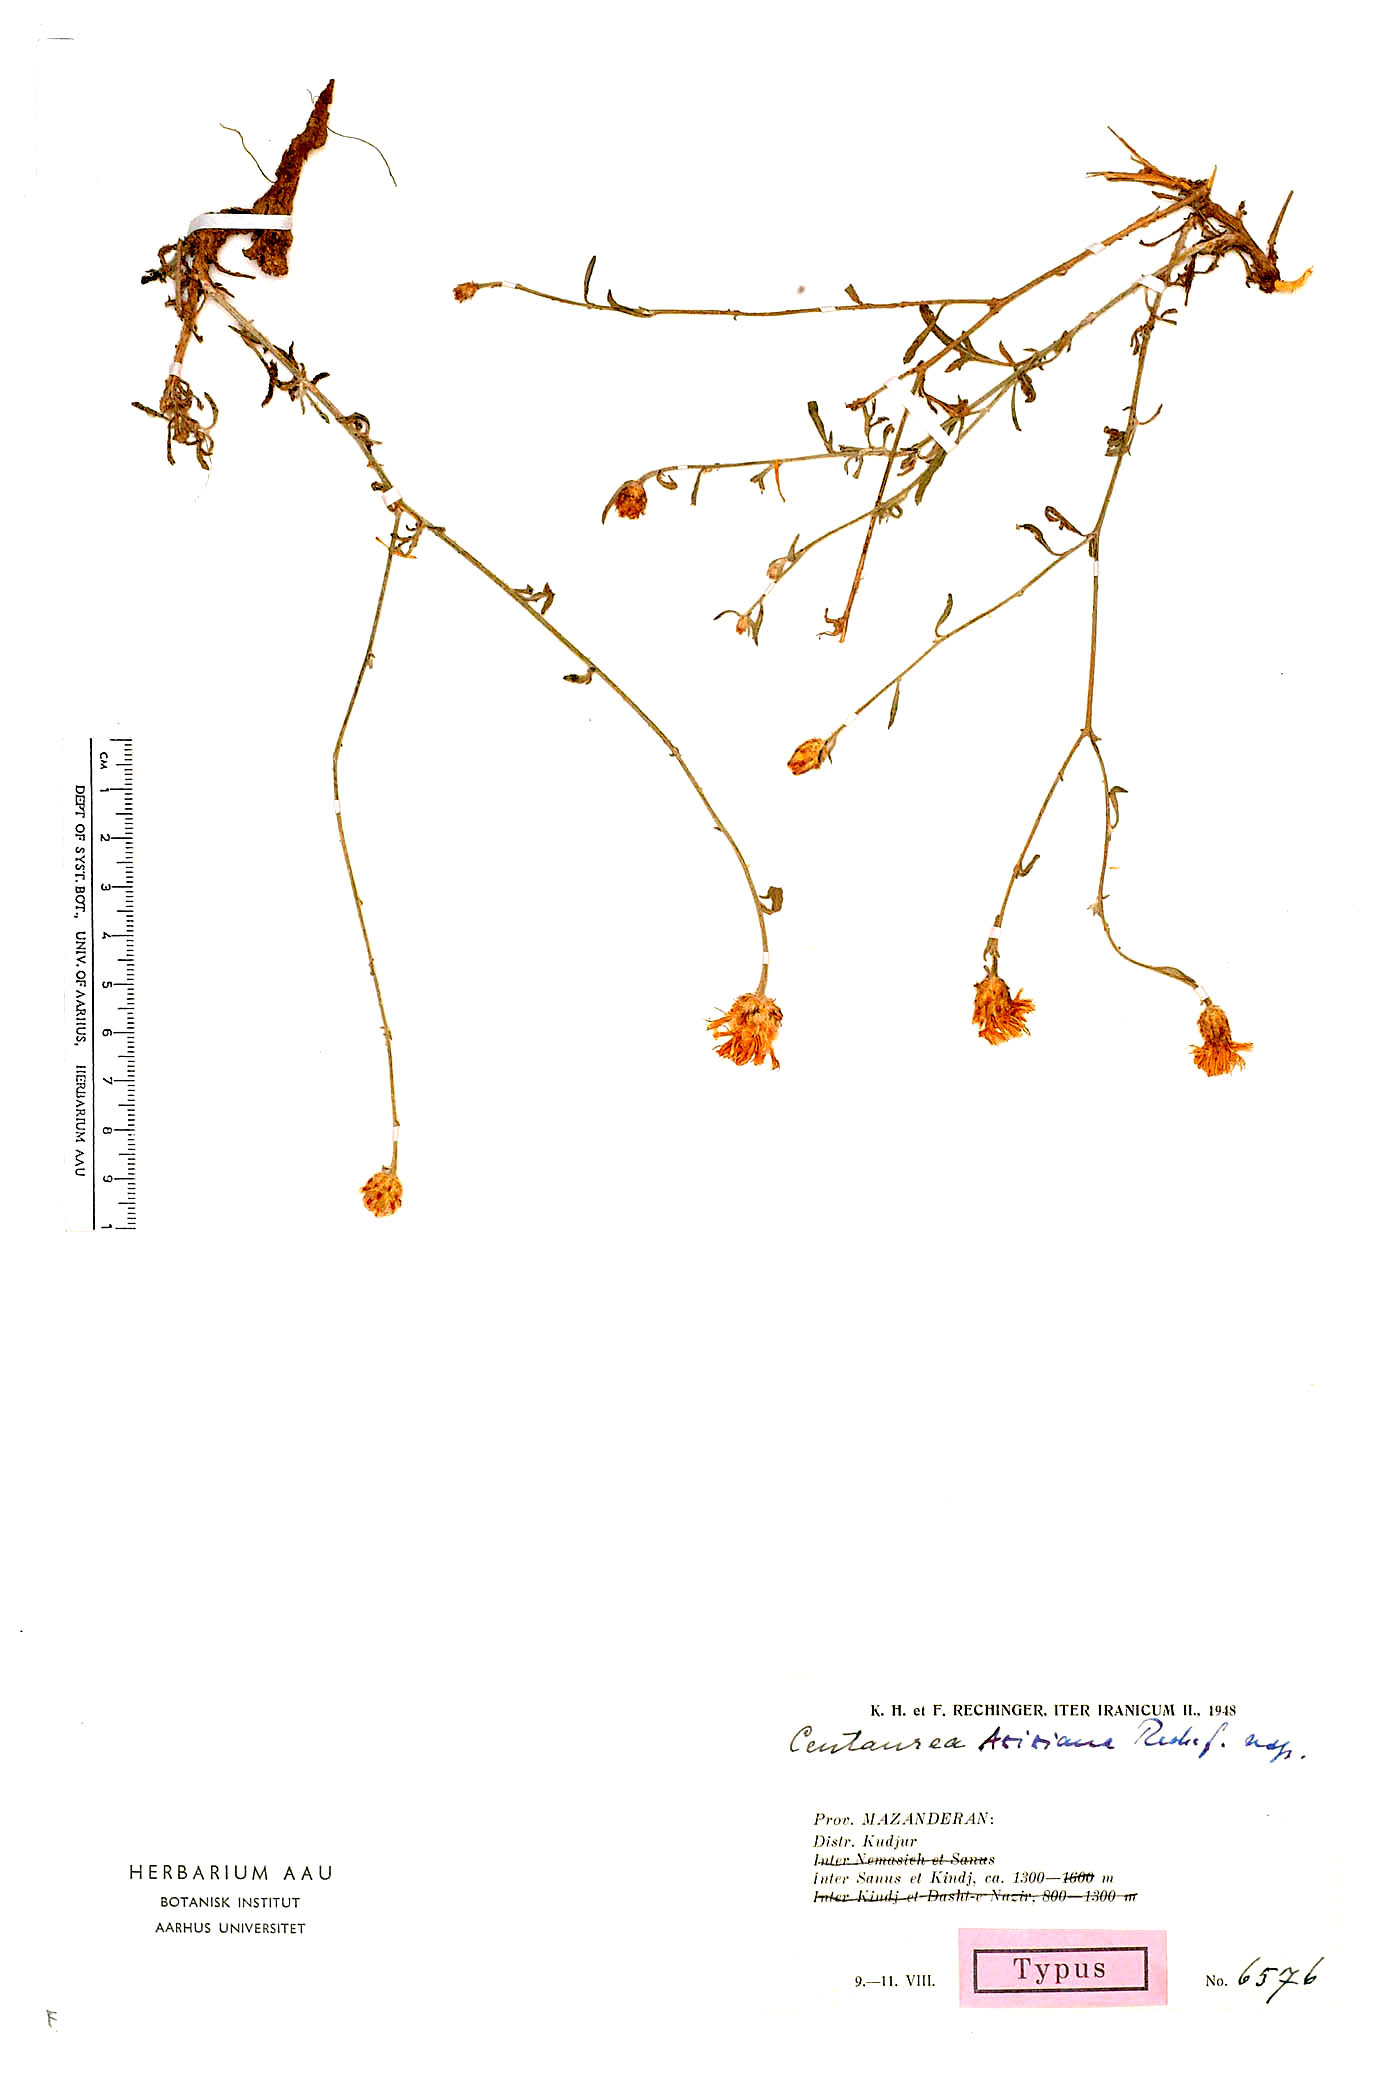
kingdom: Plantae
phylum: Tracheophyta
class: Magnoliopsida
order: Asterales
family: Asteraceae
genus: Centaurea
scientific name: Centaurea aziziana
